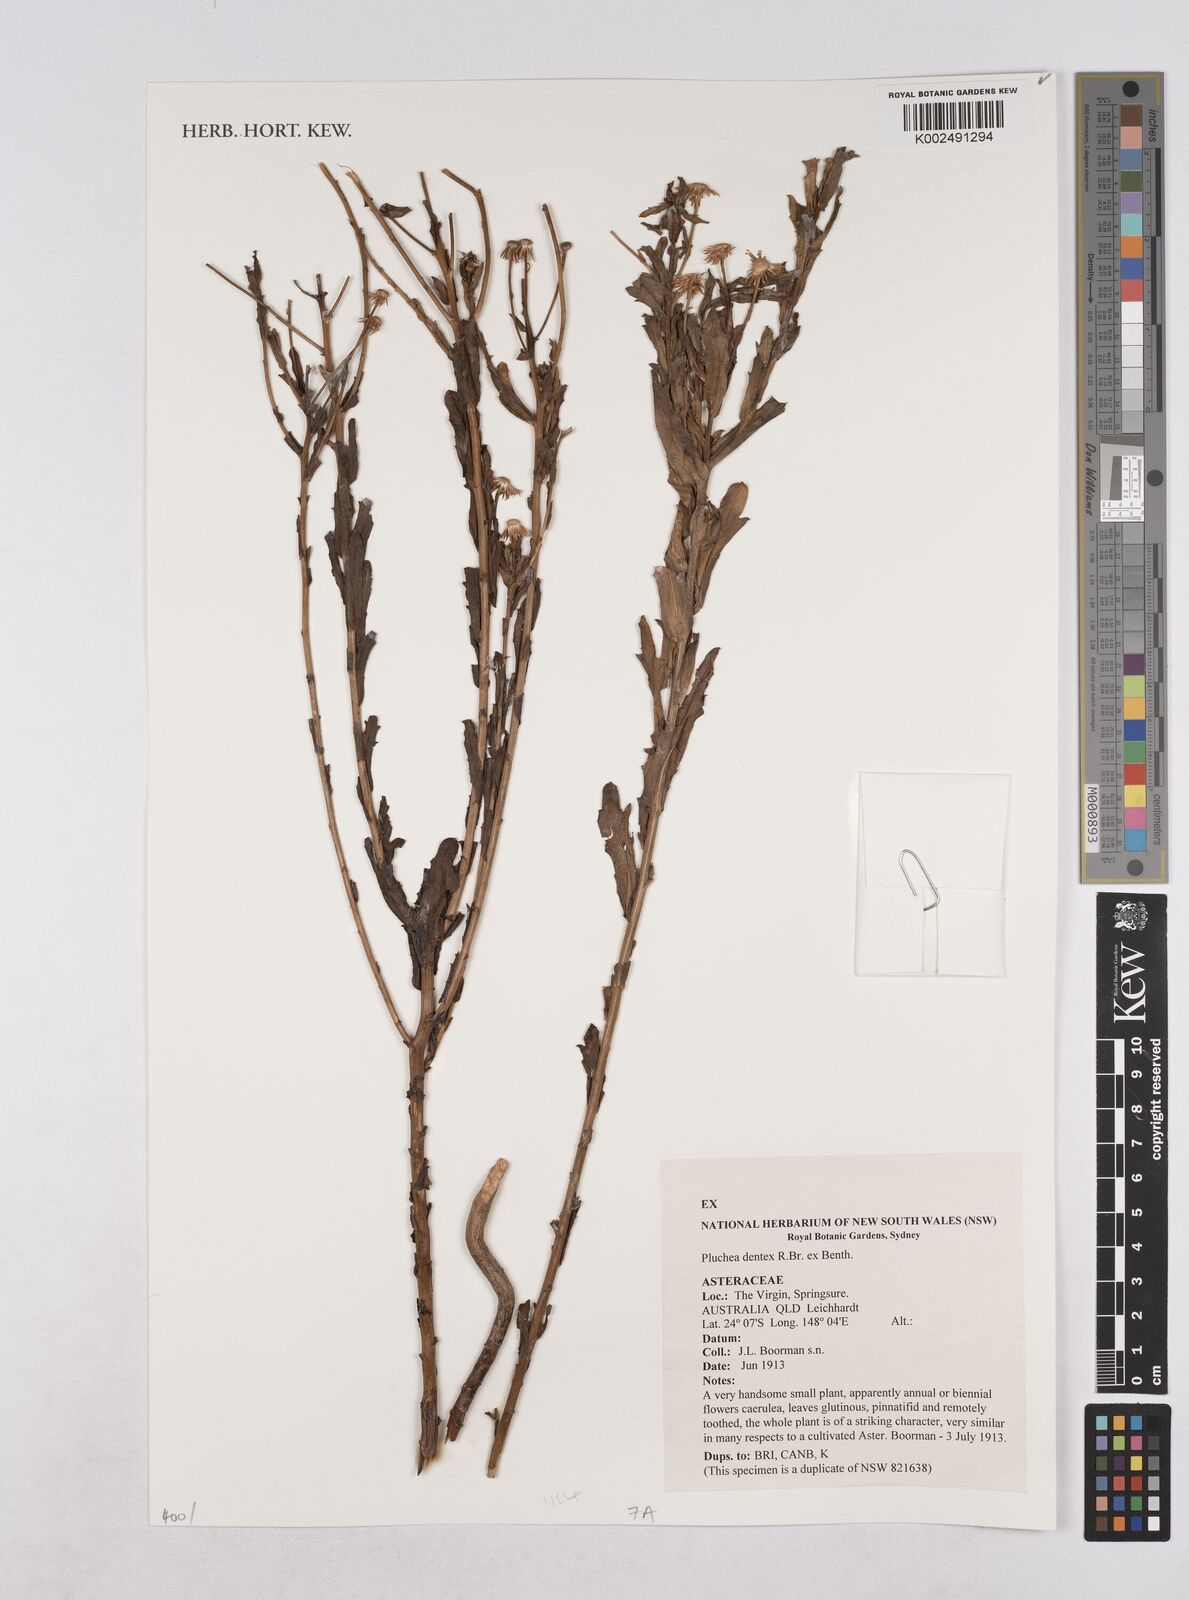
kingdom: Plantae
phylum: Tracheophyta
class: Magnoliopsida
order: Asterales
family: Asteraceae
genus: Pluchea
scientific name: Pluchea dentex
